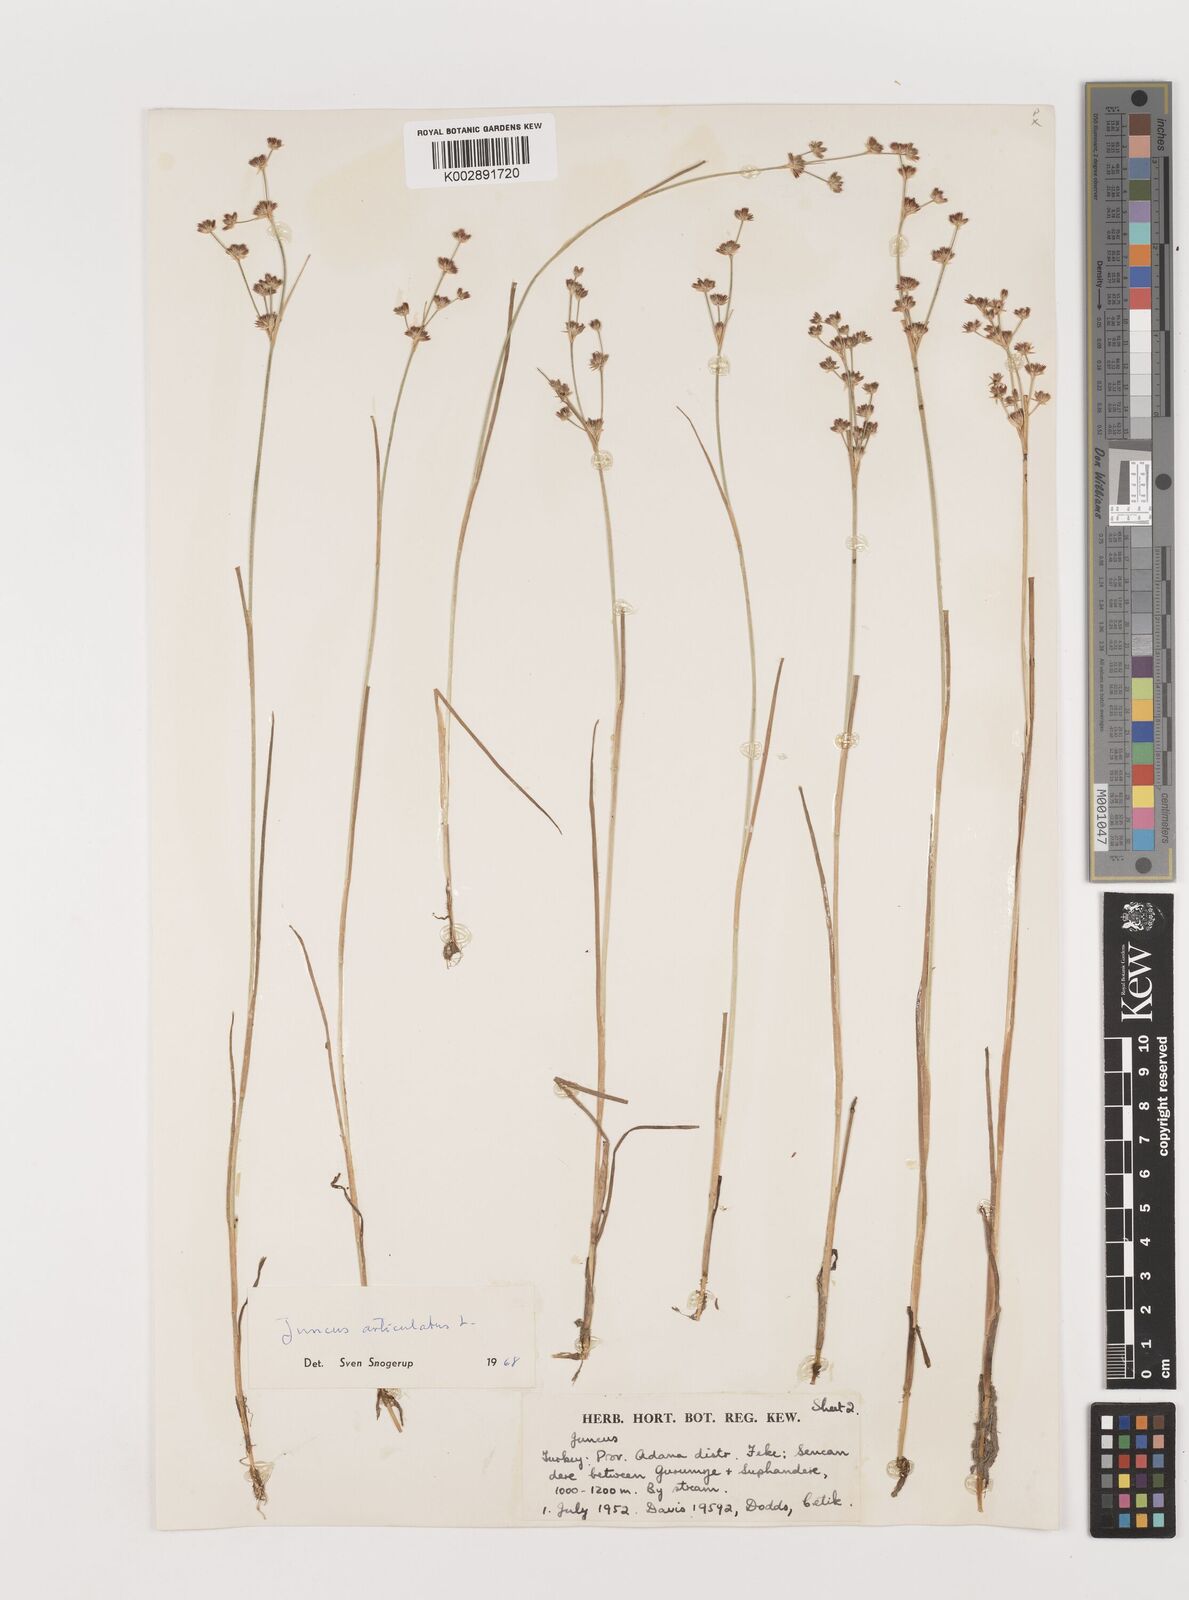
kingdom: Plantae
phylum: Tracheophyta
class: Liliopsida
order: Poales
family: Juncaceae
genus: Juncus
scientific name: Juncus articulatus
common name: Jointed rush
